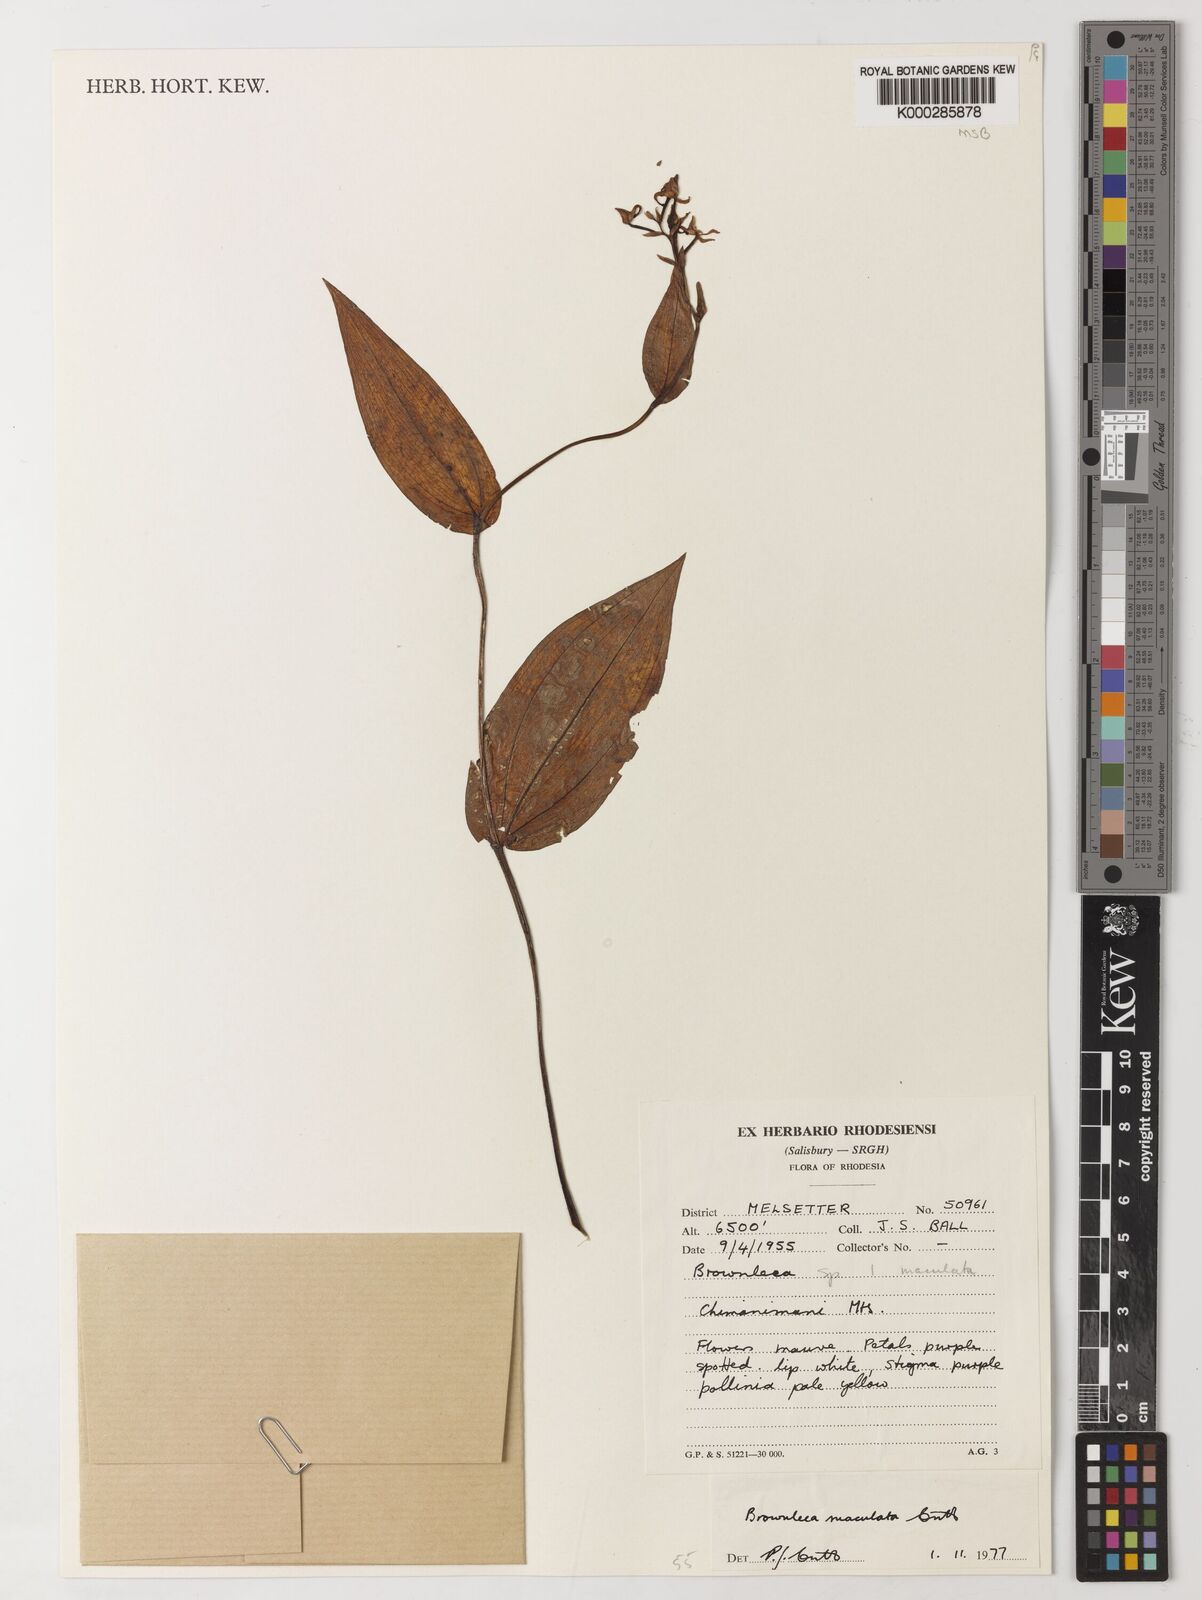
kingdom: Plantae
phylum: Tracheophyta
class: Liliopsida
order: Asparagales
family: Orchidaceae
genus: Brownleea
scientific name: Brownleea maculata
